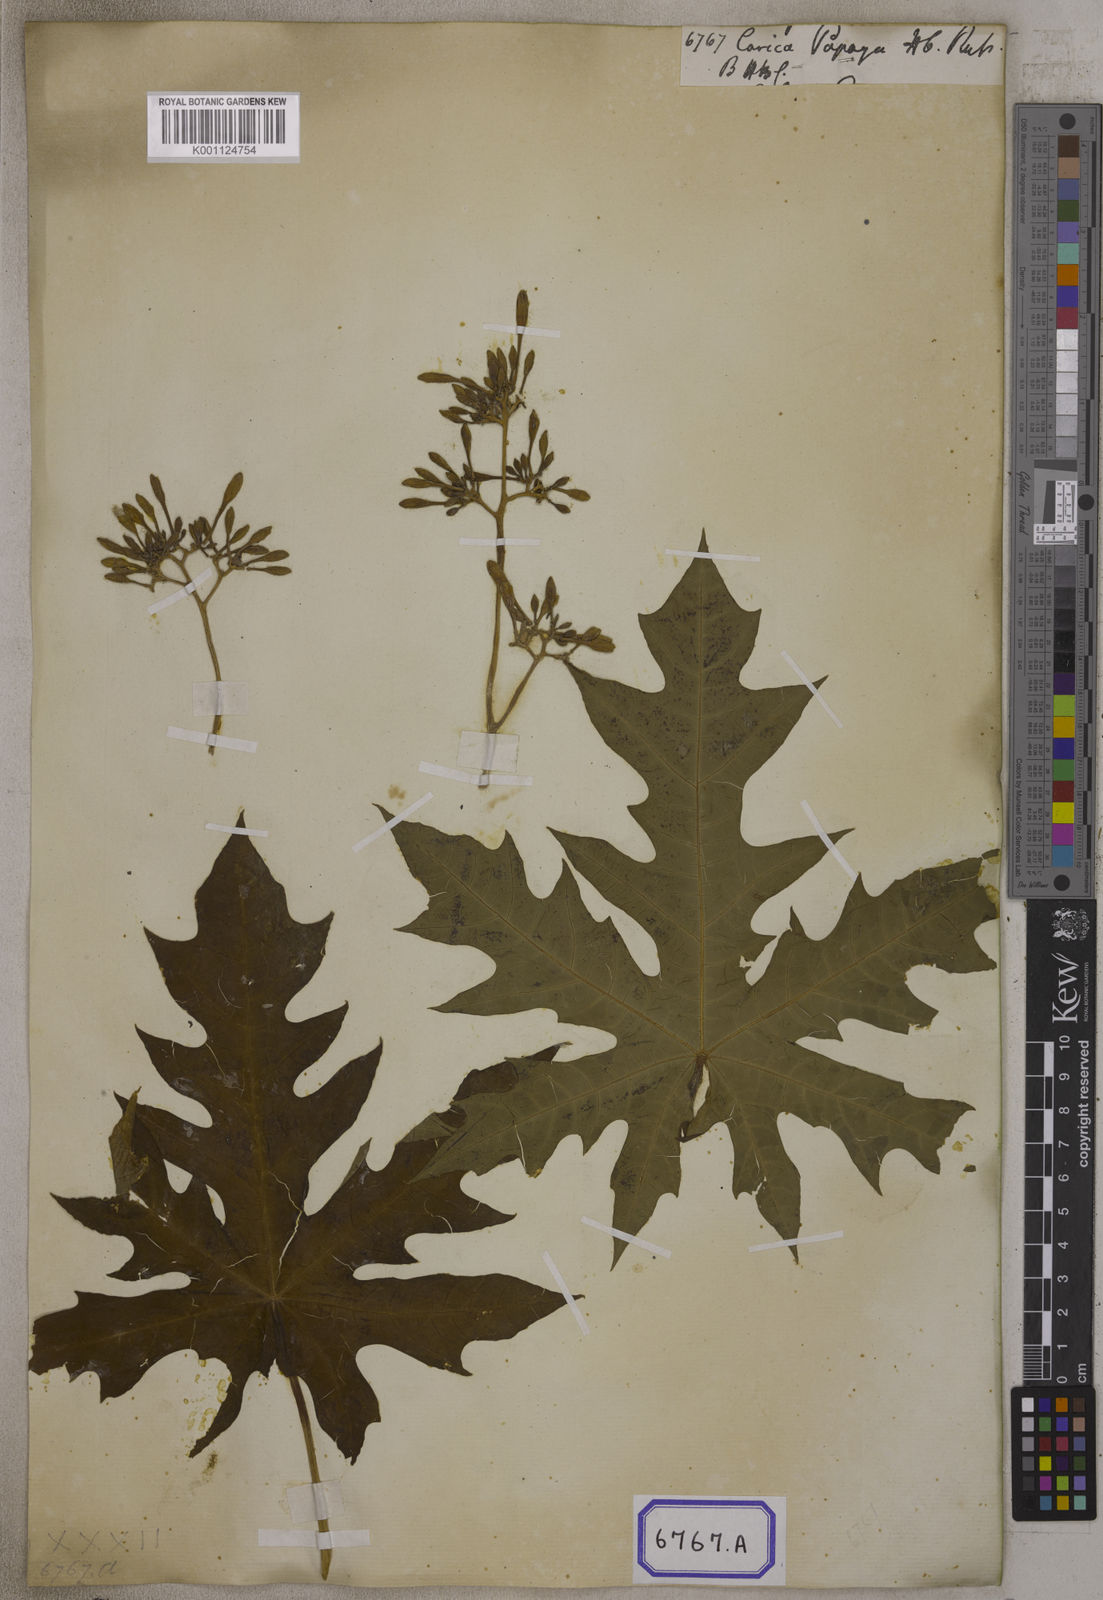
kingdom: Plantae
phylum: Tracheophyta
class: Magnoliopsida
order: Brassicales
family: Caricaceae
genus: Carica
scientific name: Carica papaya
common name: Papaya
